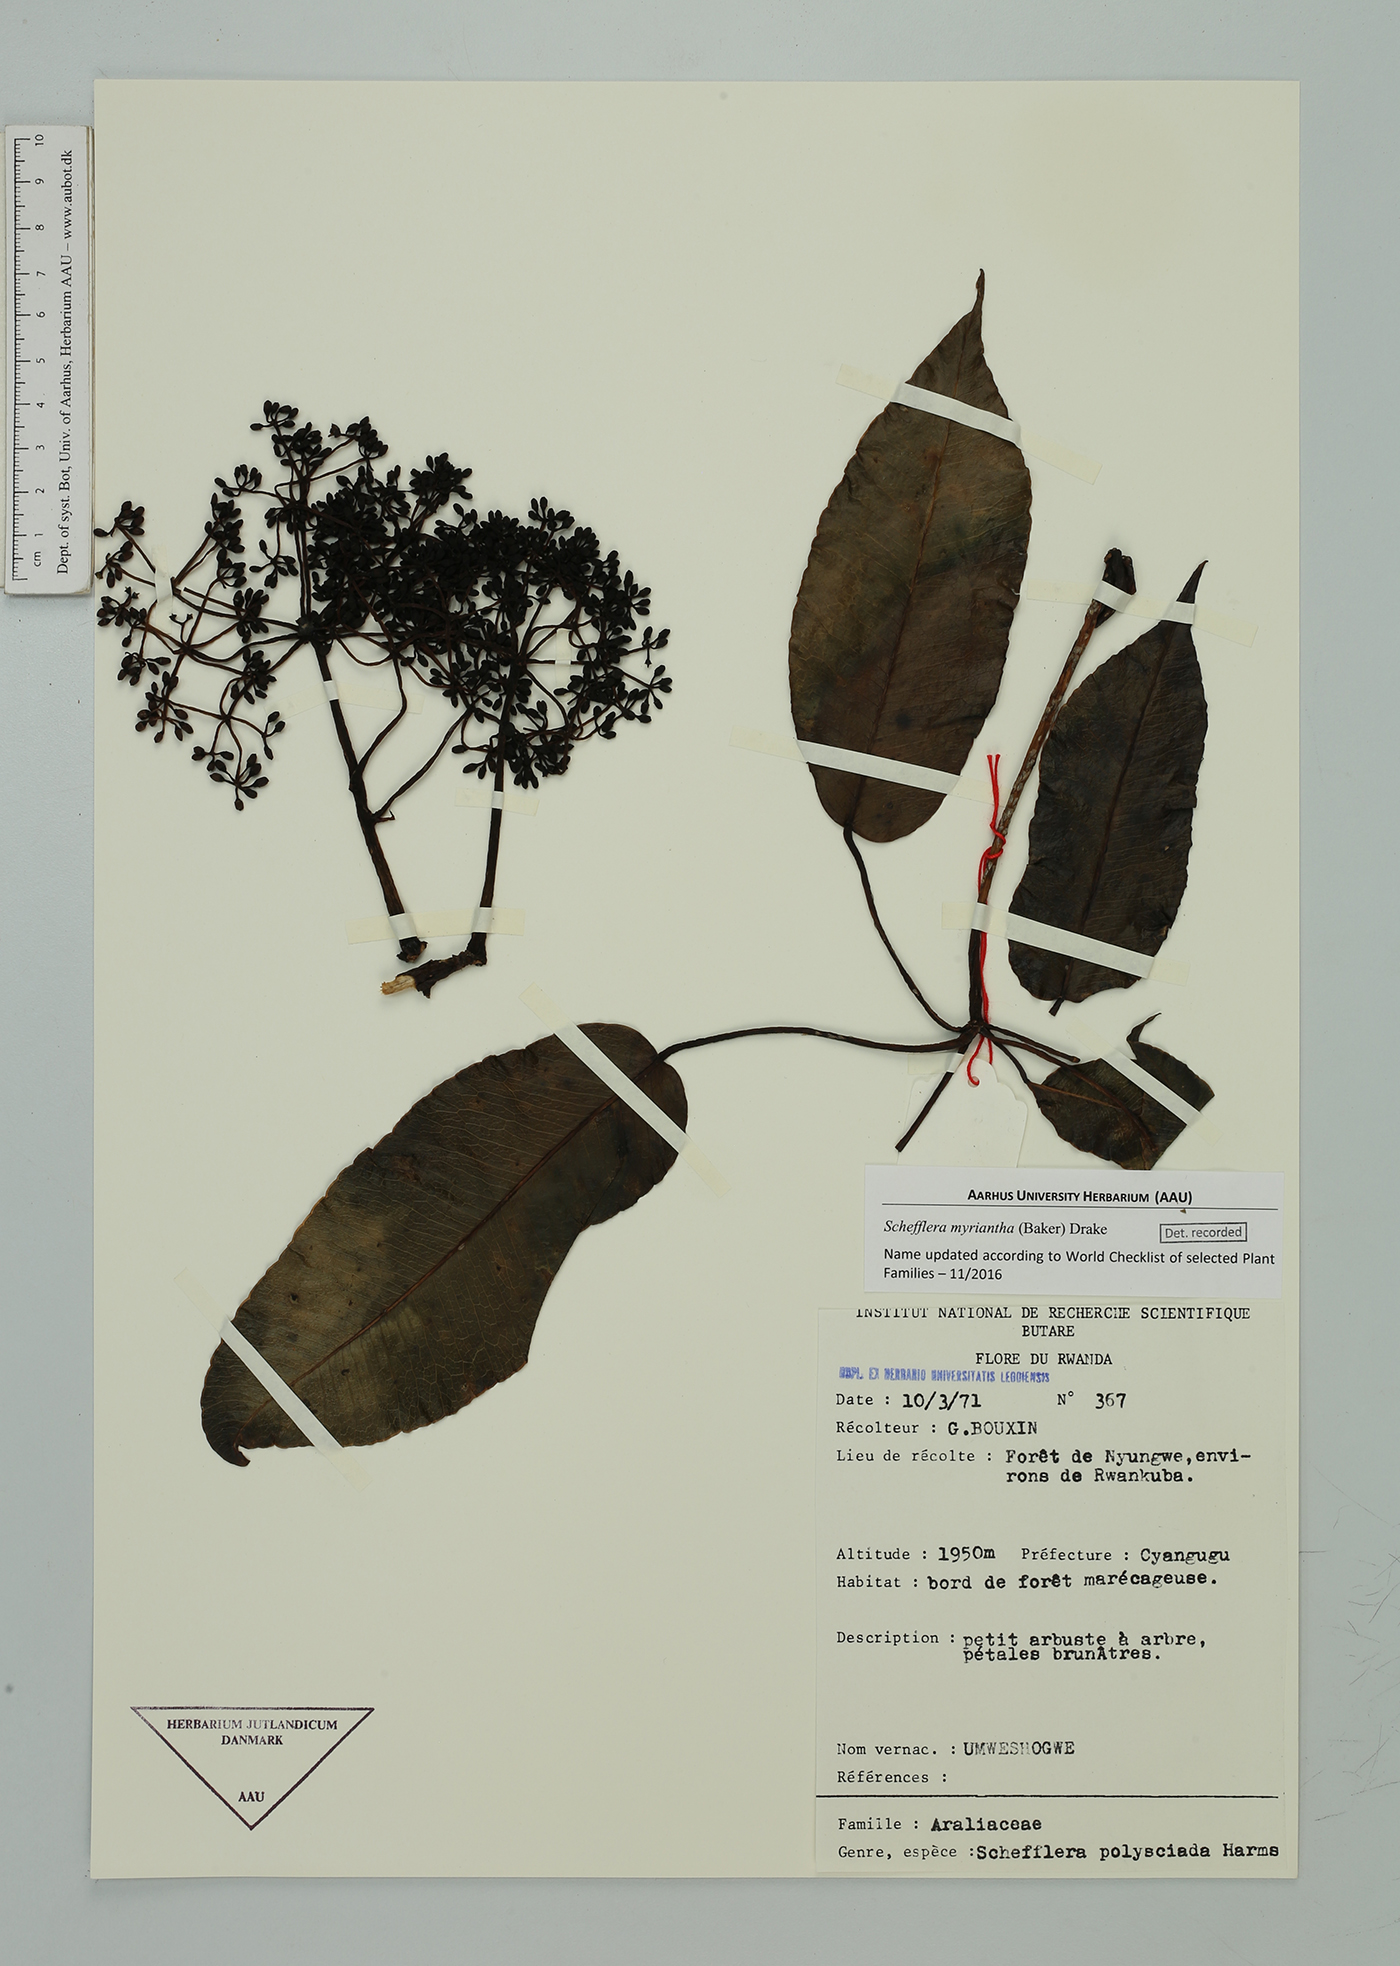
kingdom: Plantae
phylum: Tracheophyta
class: Magnoliopsida
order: Apiales
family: Araliaceae
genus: Astropanax
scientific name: Astropanax myrianthus
